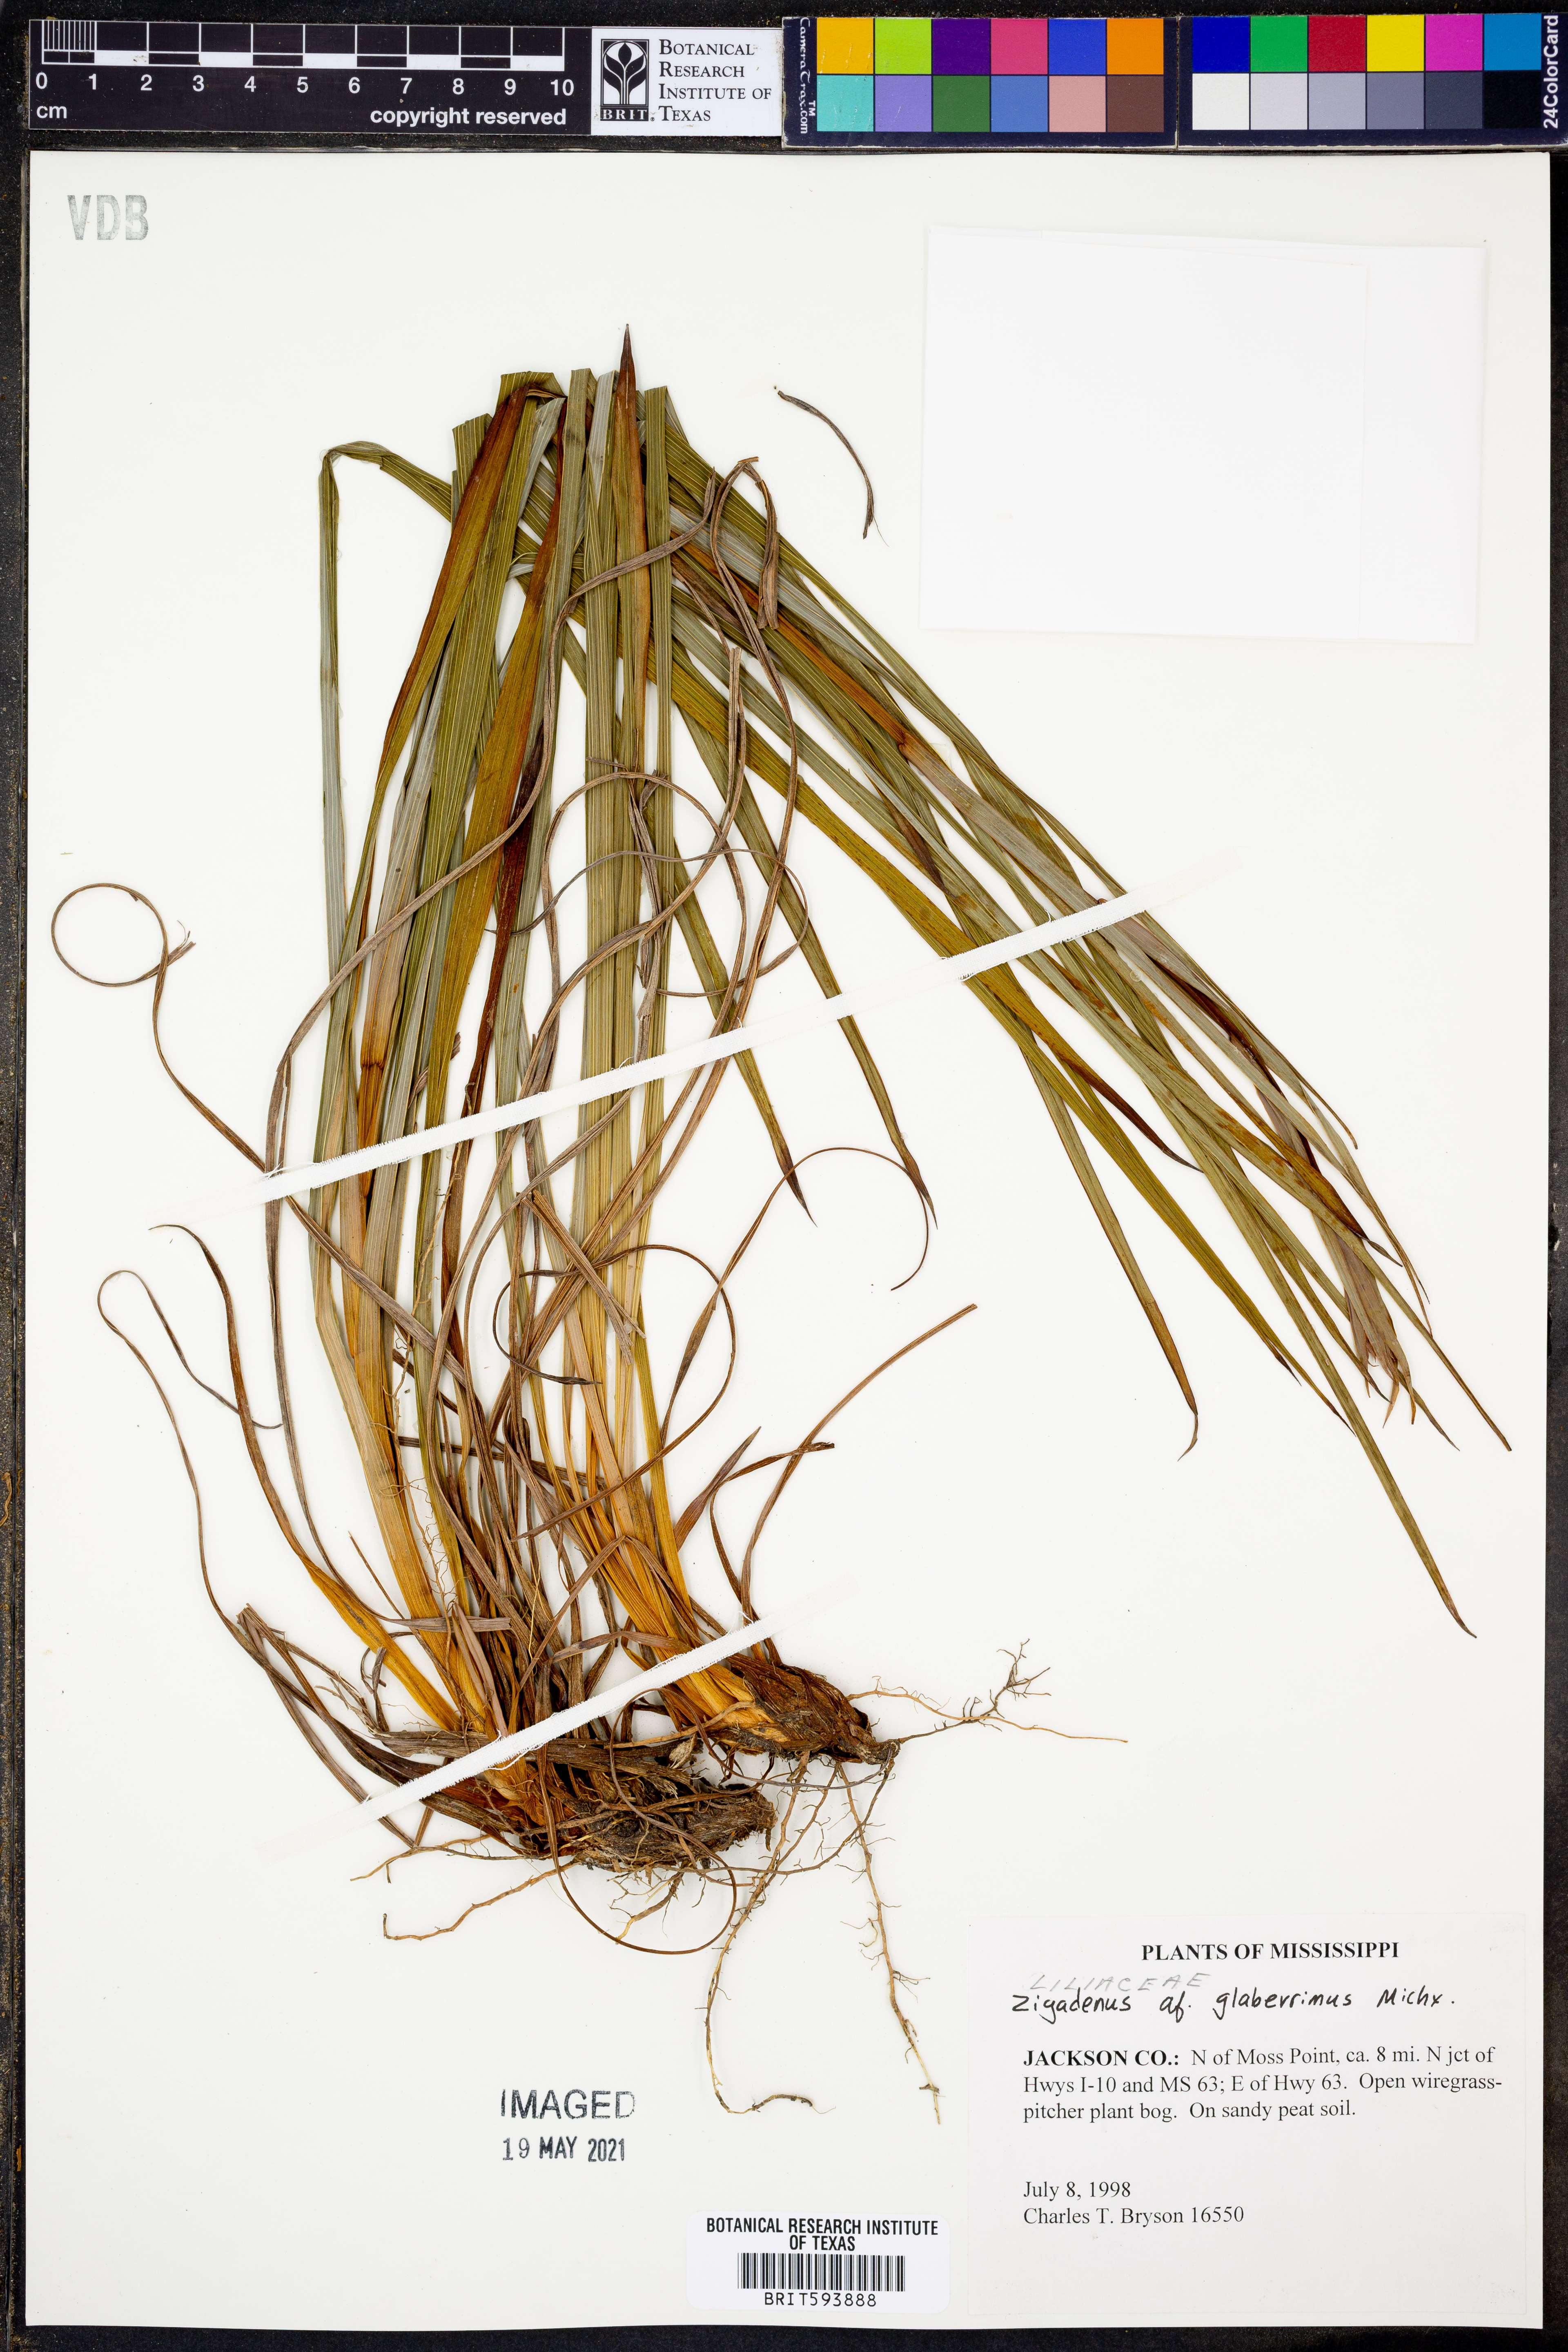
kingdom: Plantae
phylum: Tracheophyta
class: Liliopsida
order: Liliales
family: Melanthiaceae
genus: Zigadenus
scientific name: Zigadenus glaberrimus
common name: Sandbog death camas
